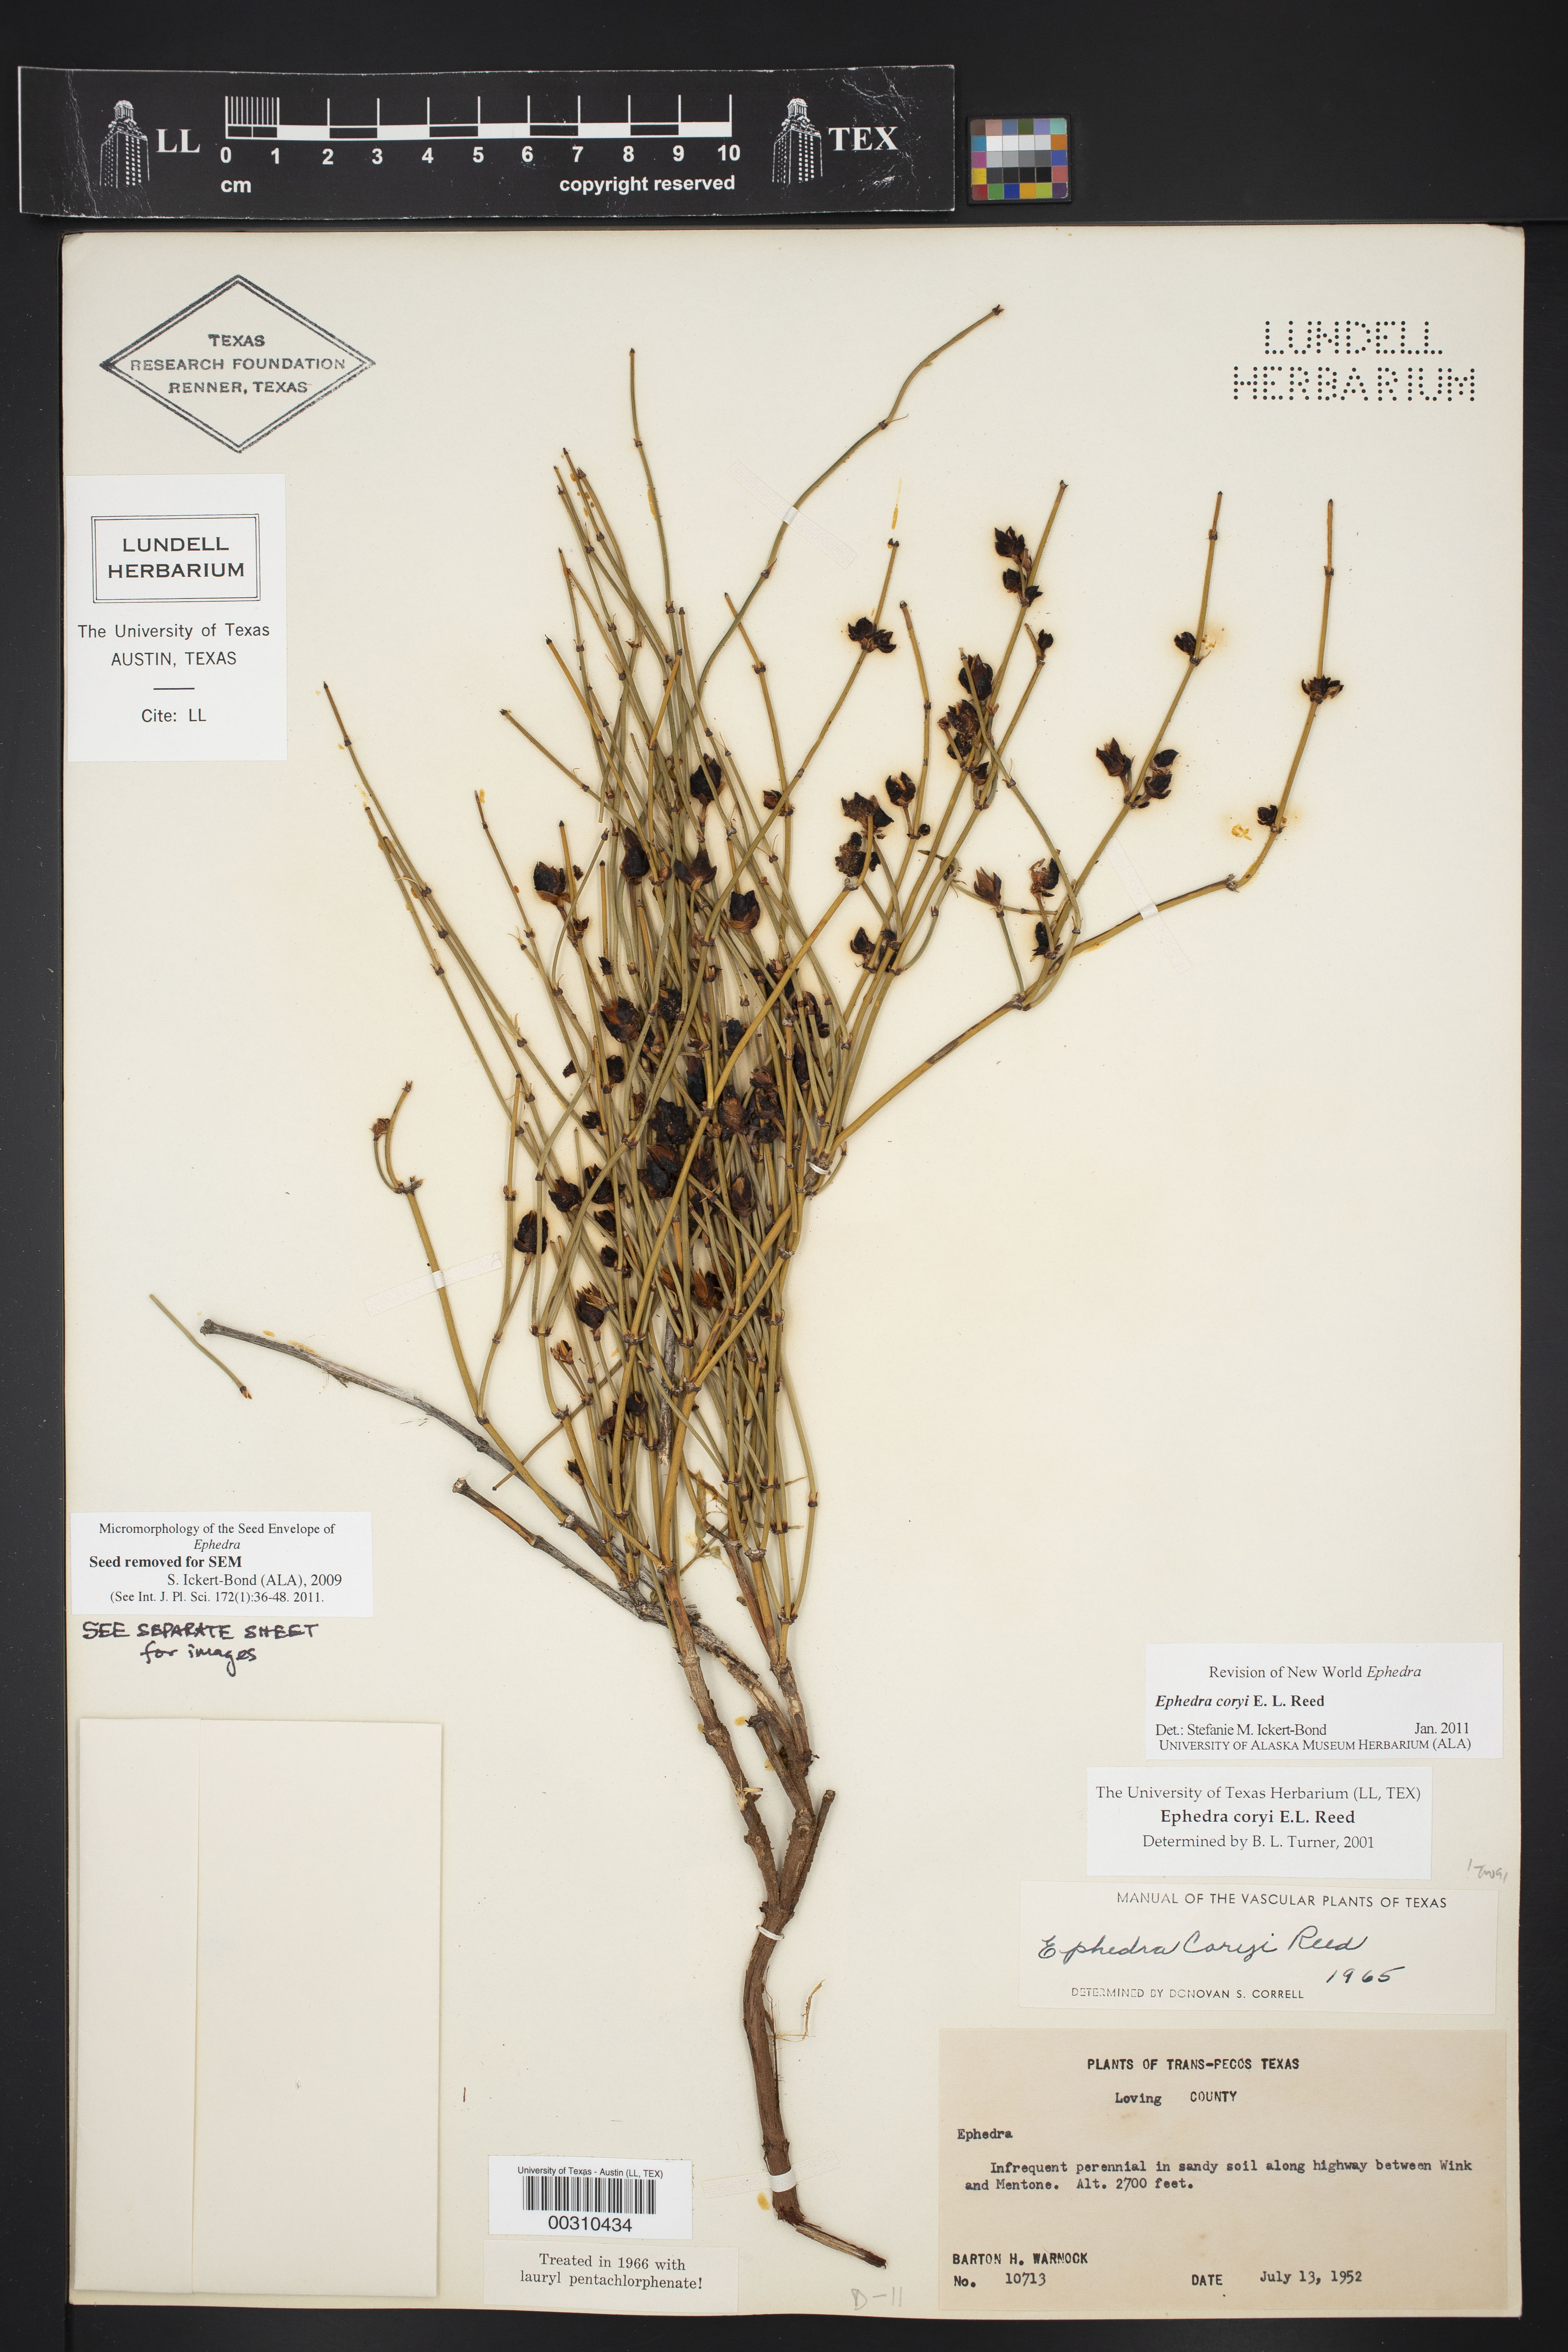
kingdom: Plantae
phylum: Tracheophyta
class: Gnetopsida
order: Ephedrales
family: Ephedraceae
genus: Ephedra
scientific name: Ephedra coryi
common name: Cory's ephedra
